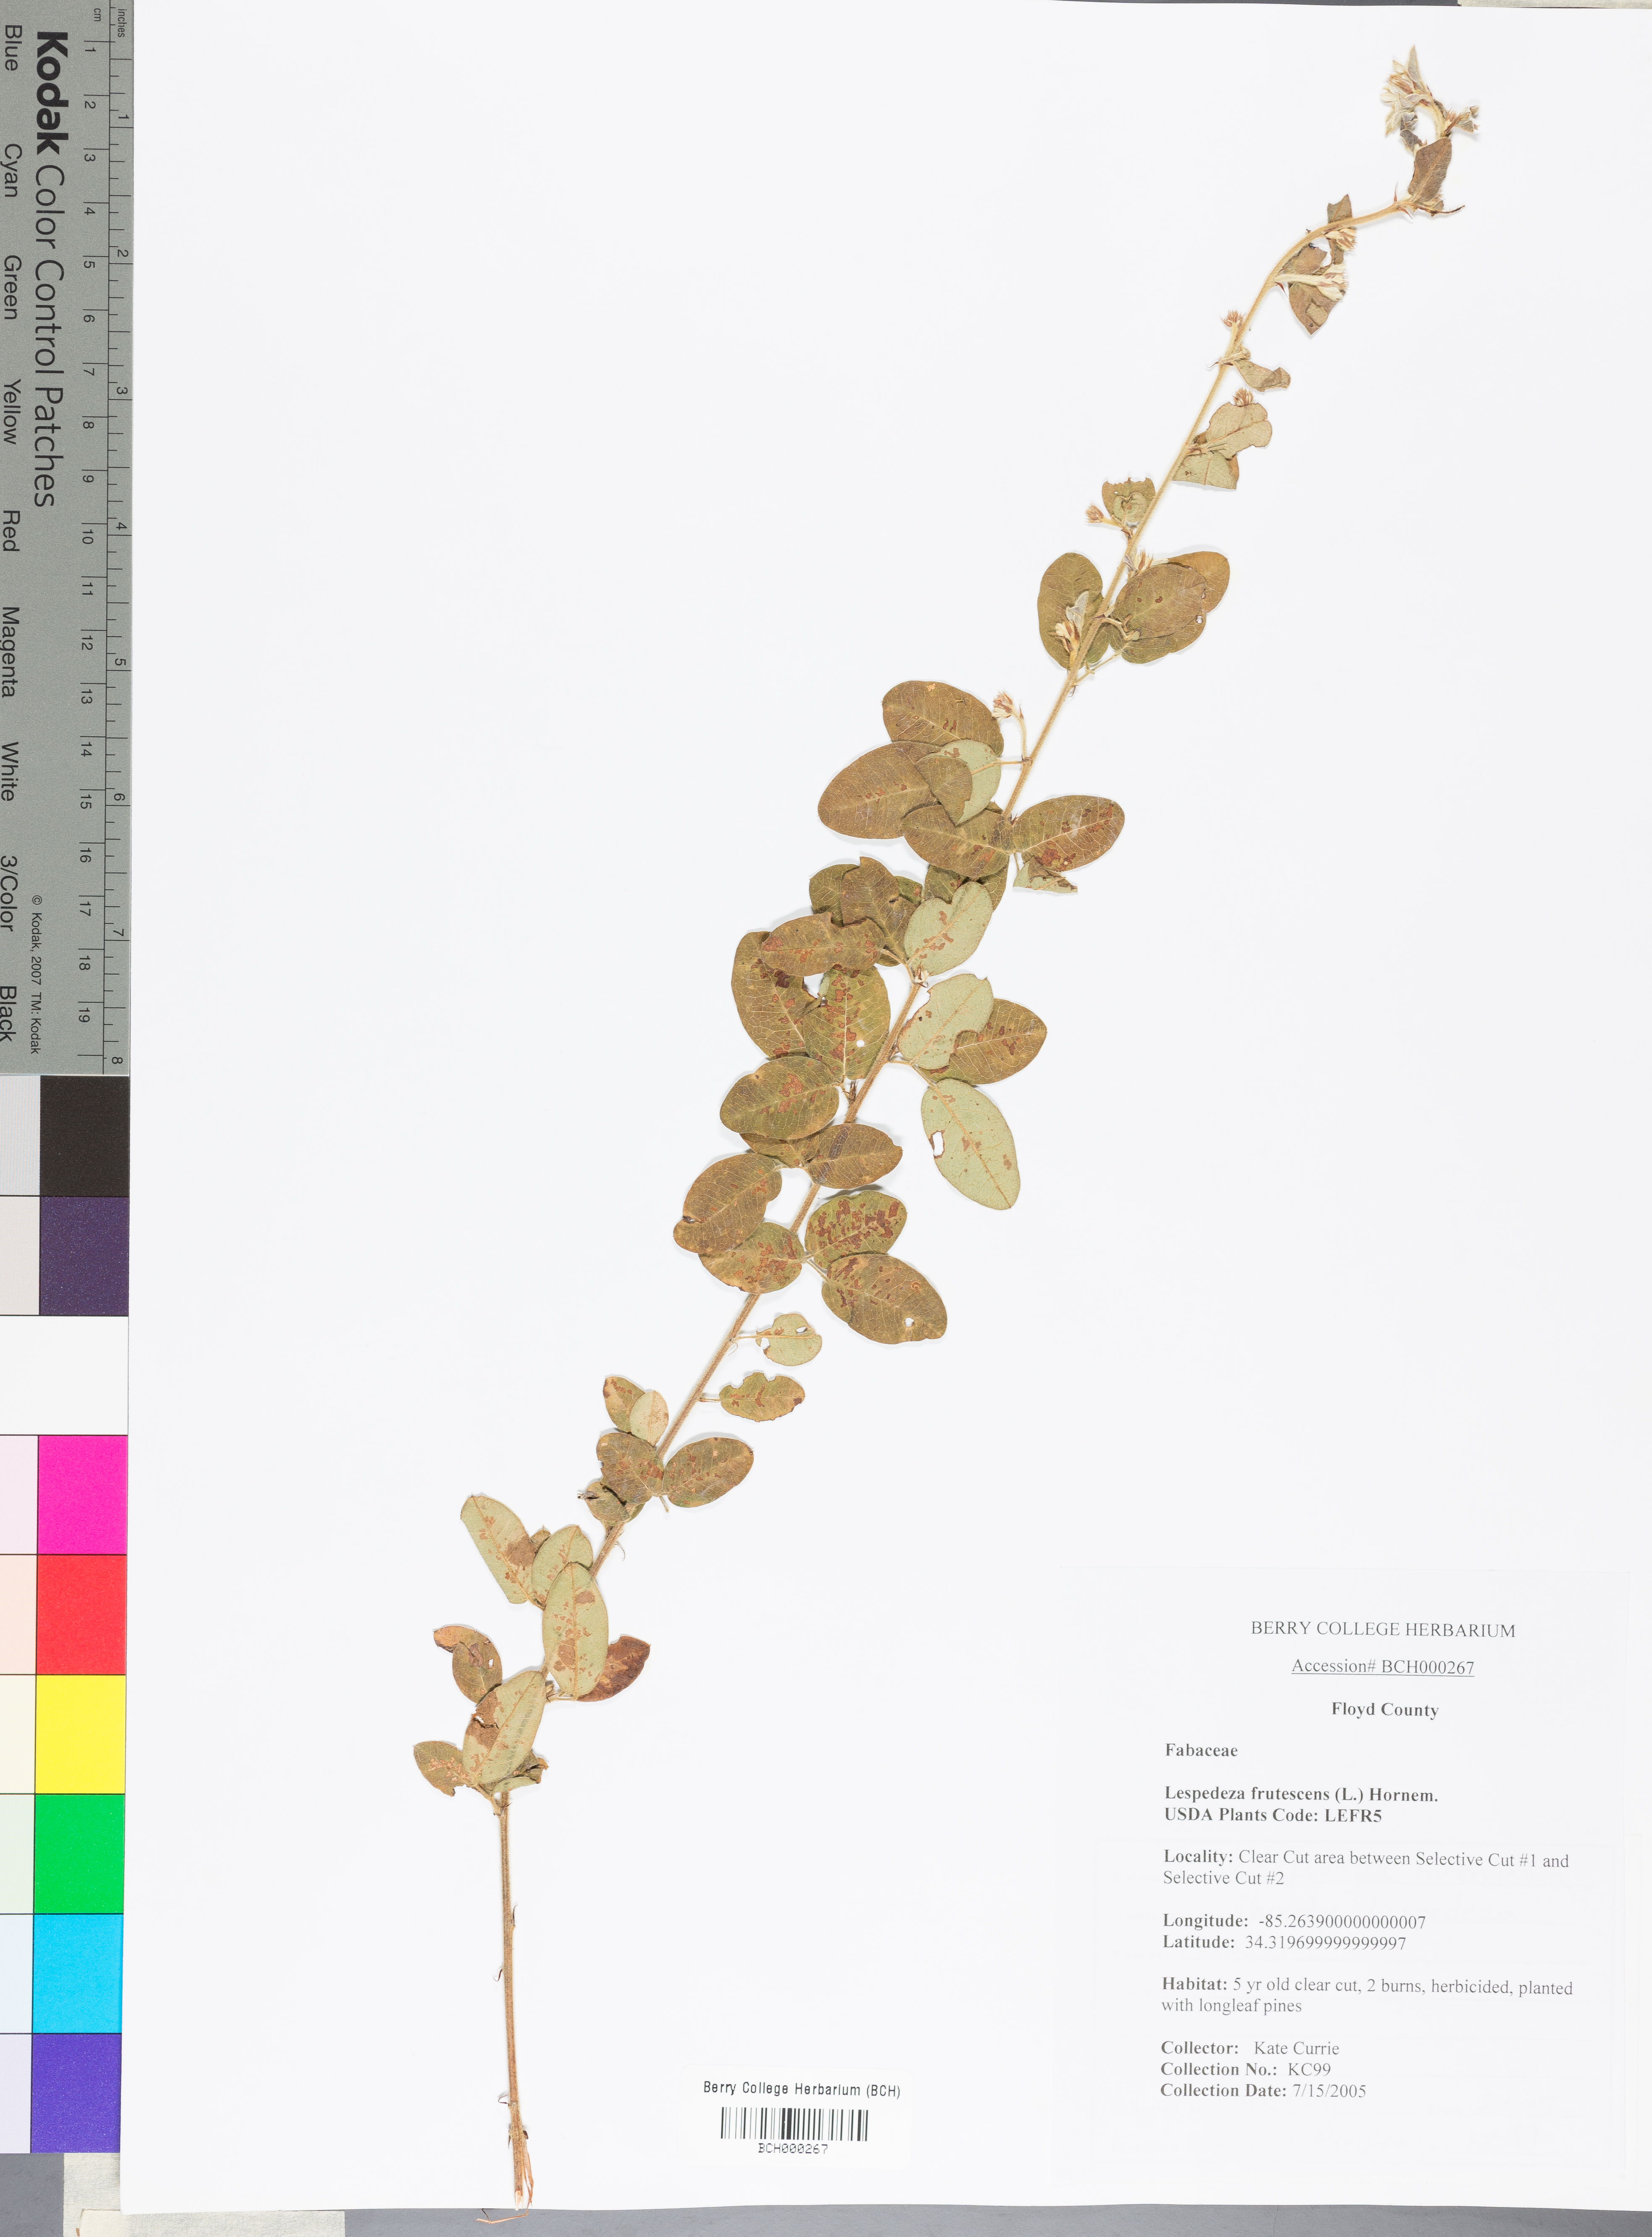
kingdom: Plantae
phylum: Tracheophyta
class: Magnoliopsida
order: Fabales
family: Fabaceae
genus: Lespedeza
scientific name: Lespedeza violacea
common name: Wand bush-clover
